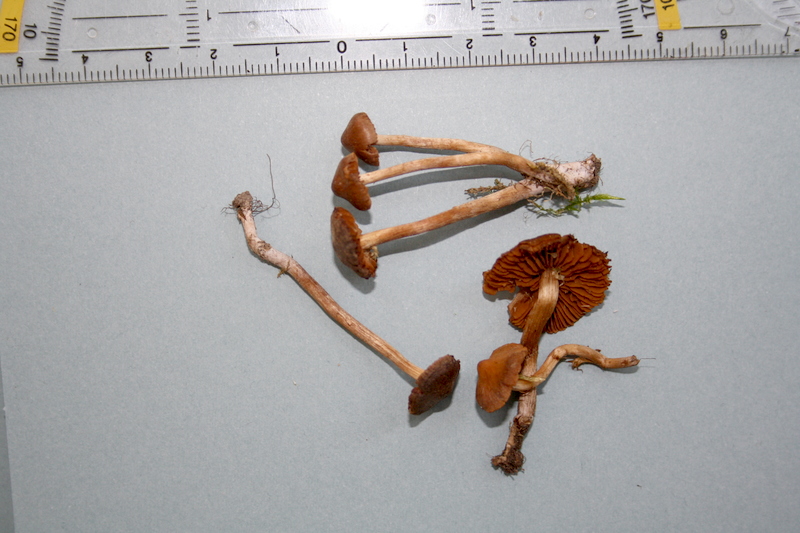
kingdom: Fungi
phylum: Basidiomycota
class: Agaricomycetes
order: Agaricales
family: Cortinariaceae
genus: Cortinarius
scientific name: Cortinarius helobius
